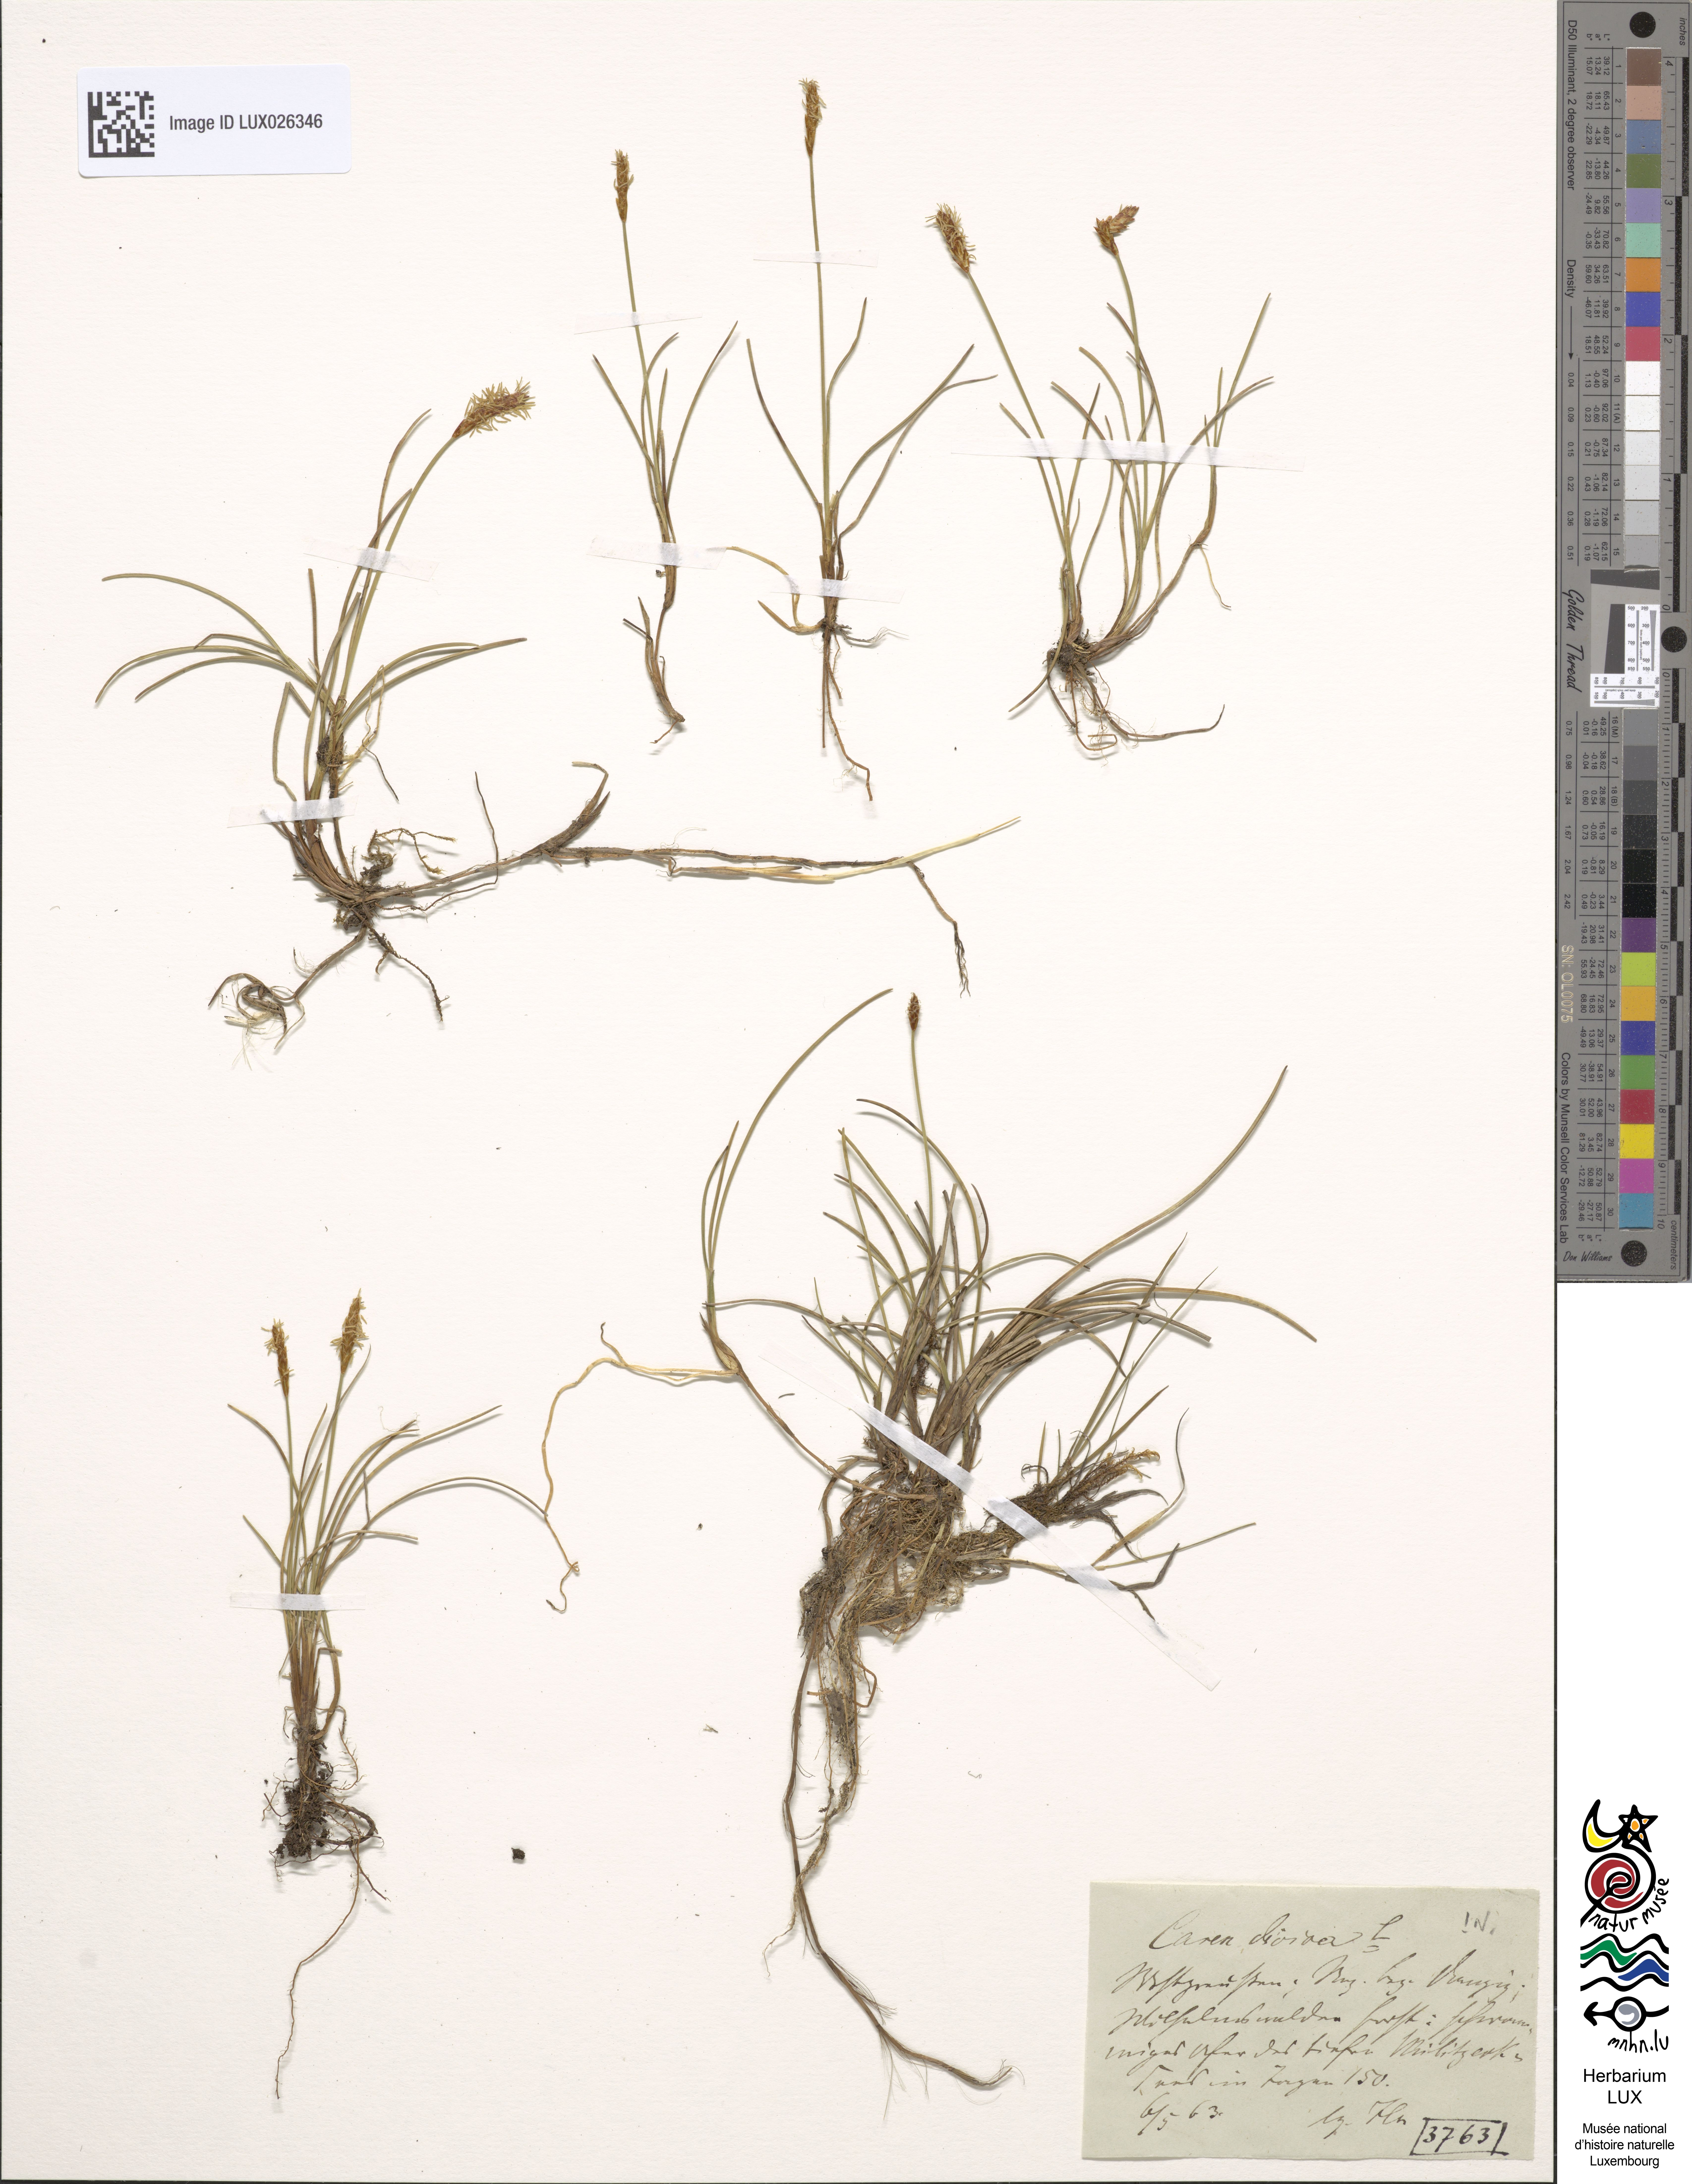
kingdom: Plantae
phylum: Tracheophyta
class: Liliopsida
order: Poales
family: Cyperaceae
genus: Carex
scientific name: Carex dioica
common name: Dioecious sedge
